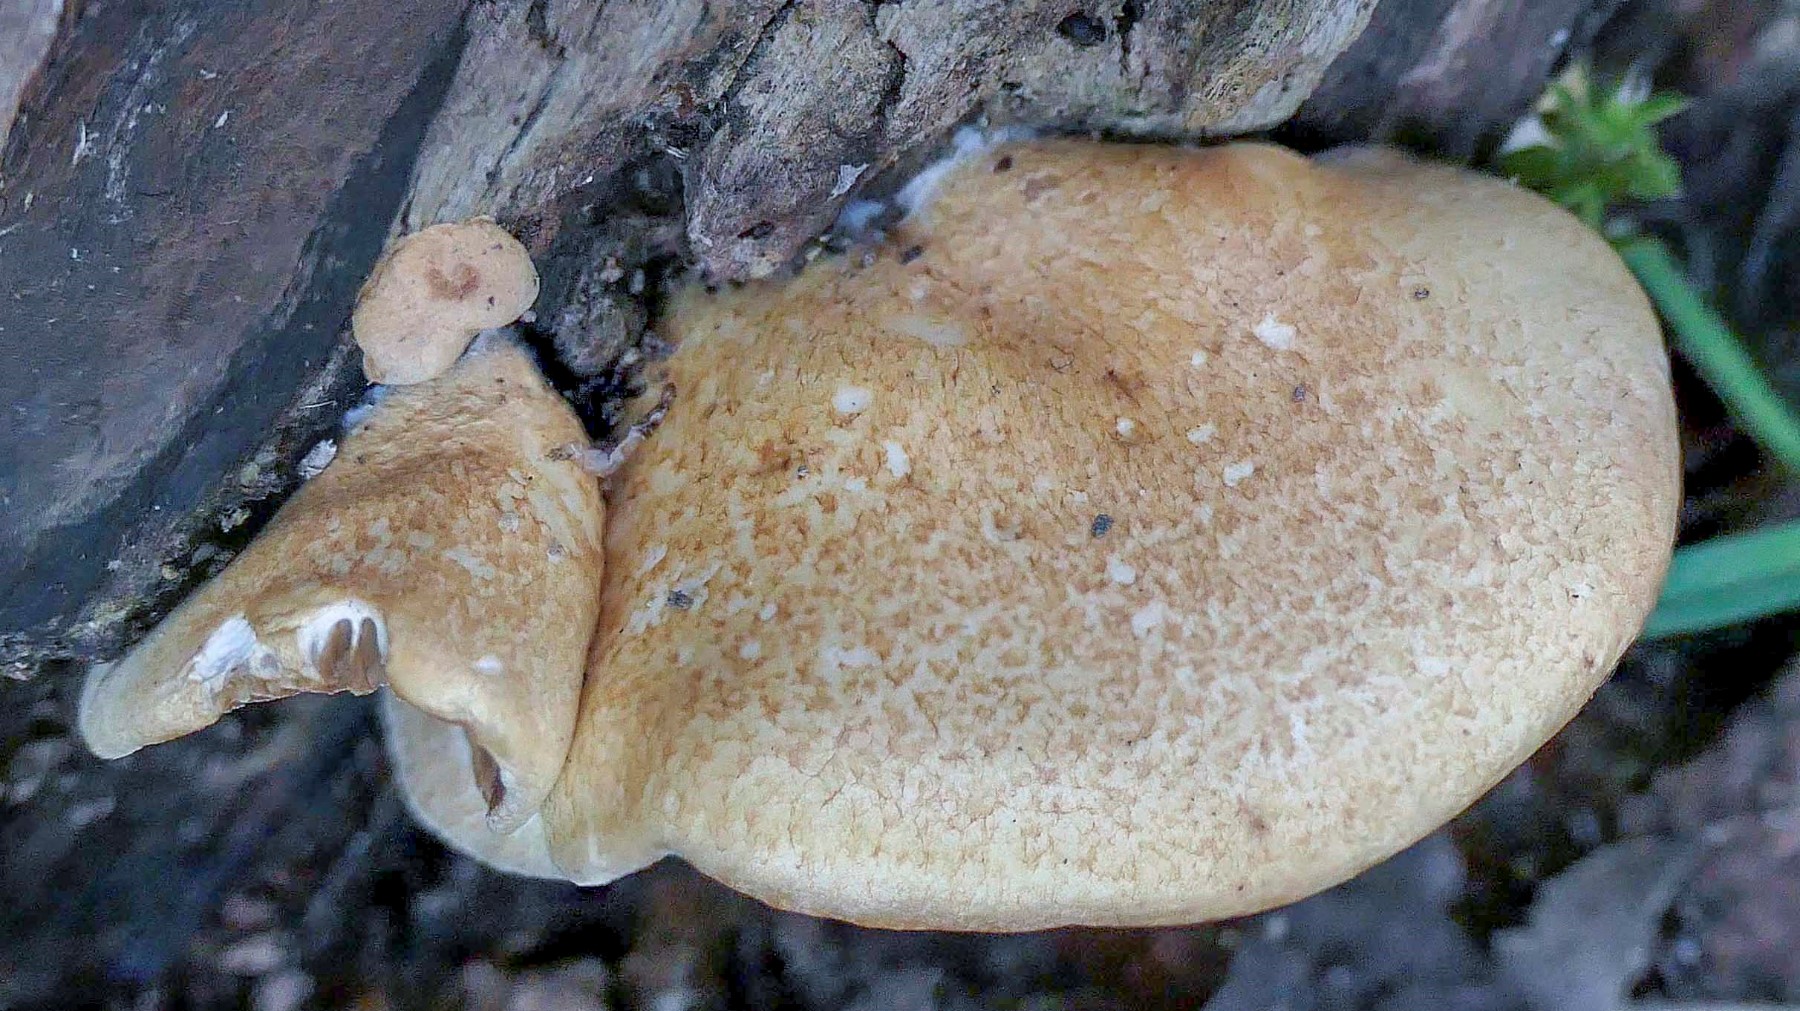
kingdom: Fungi
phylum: Basidiomycota
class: Agaricomycetes
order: Agaricales
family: Crepidotaceae
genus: Crepidotus
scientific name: Crepidotus calolepis
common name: småskællet muslingesvamp
